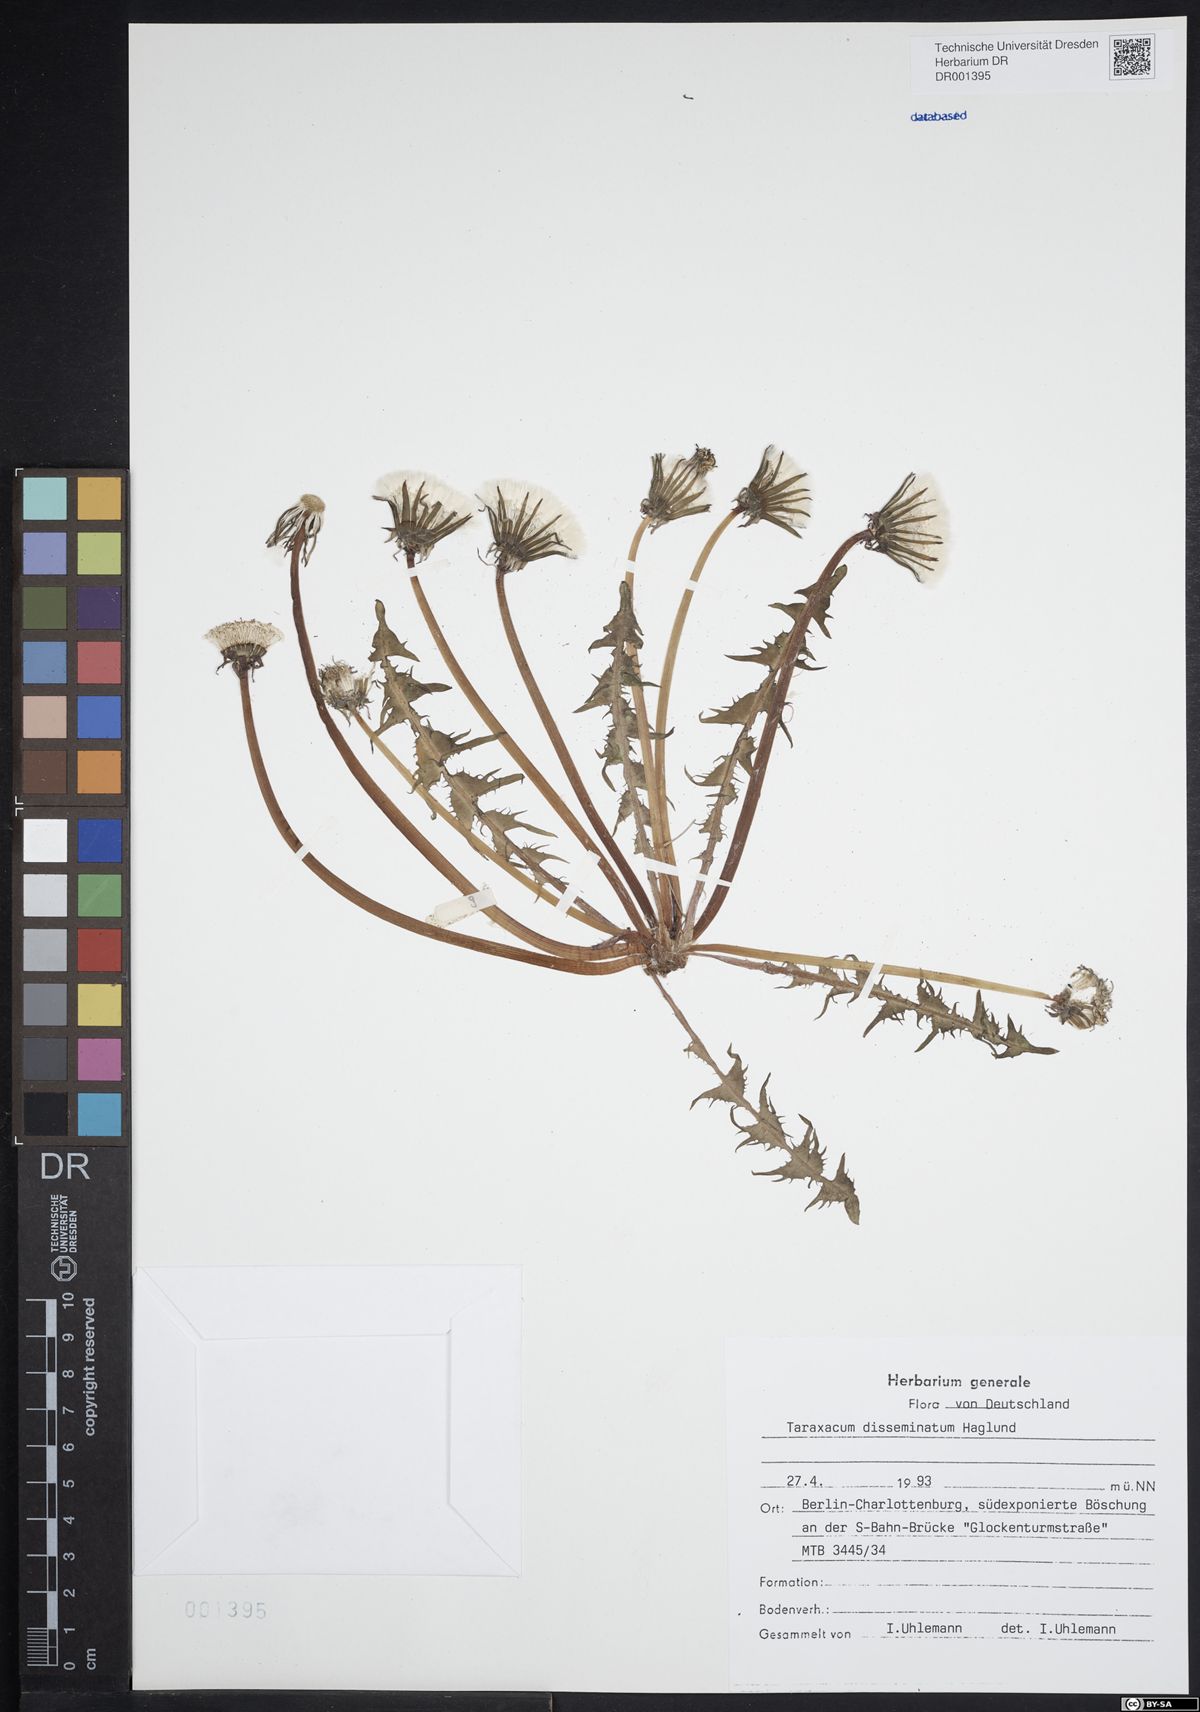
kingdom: Plantae
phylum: Tracheophyta
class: Magnoliopsida
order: Asterales
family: Asteraceae
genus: Taraxacum
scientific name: Taraxacum disseminatum
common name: Golden-fruited dandelion
